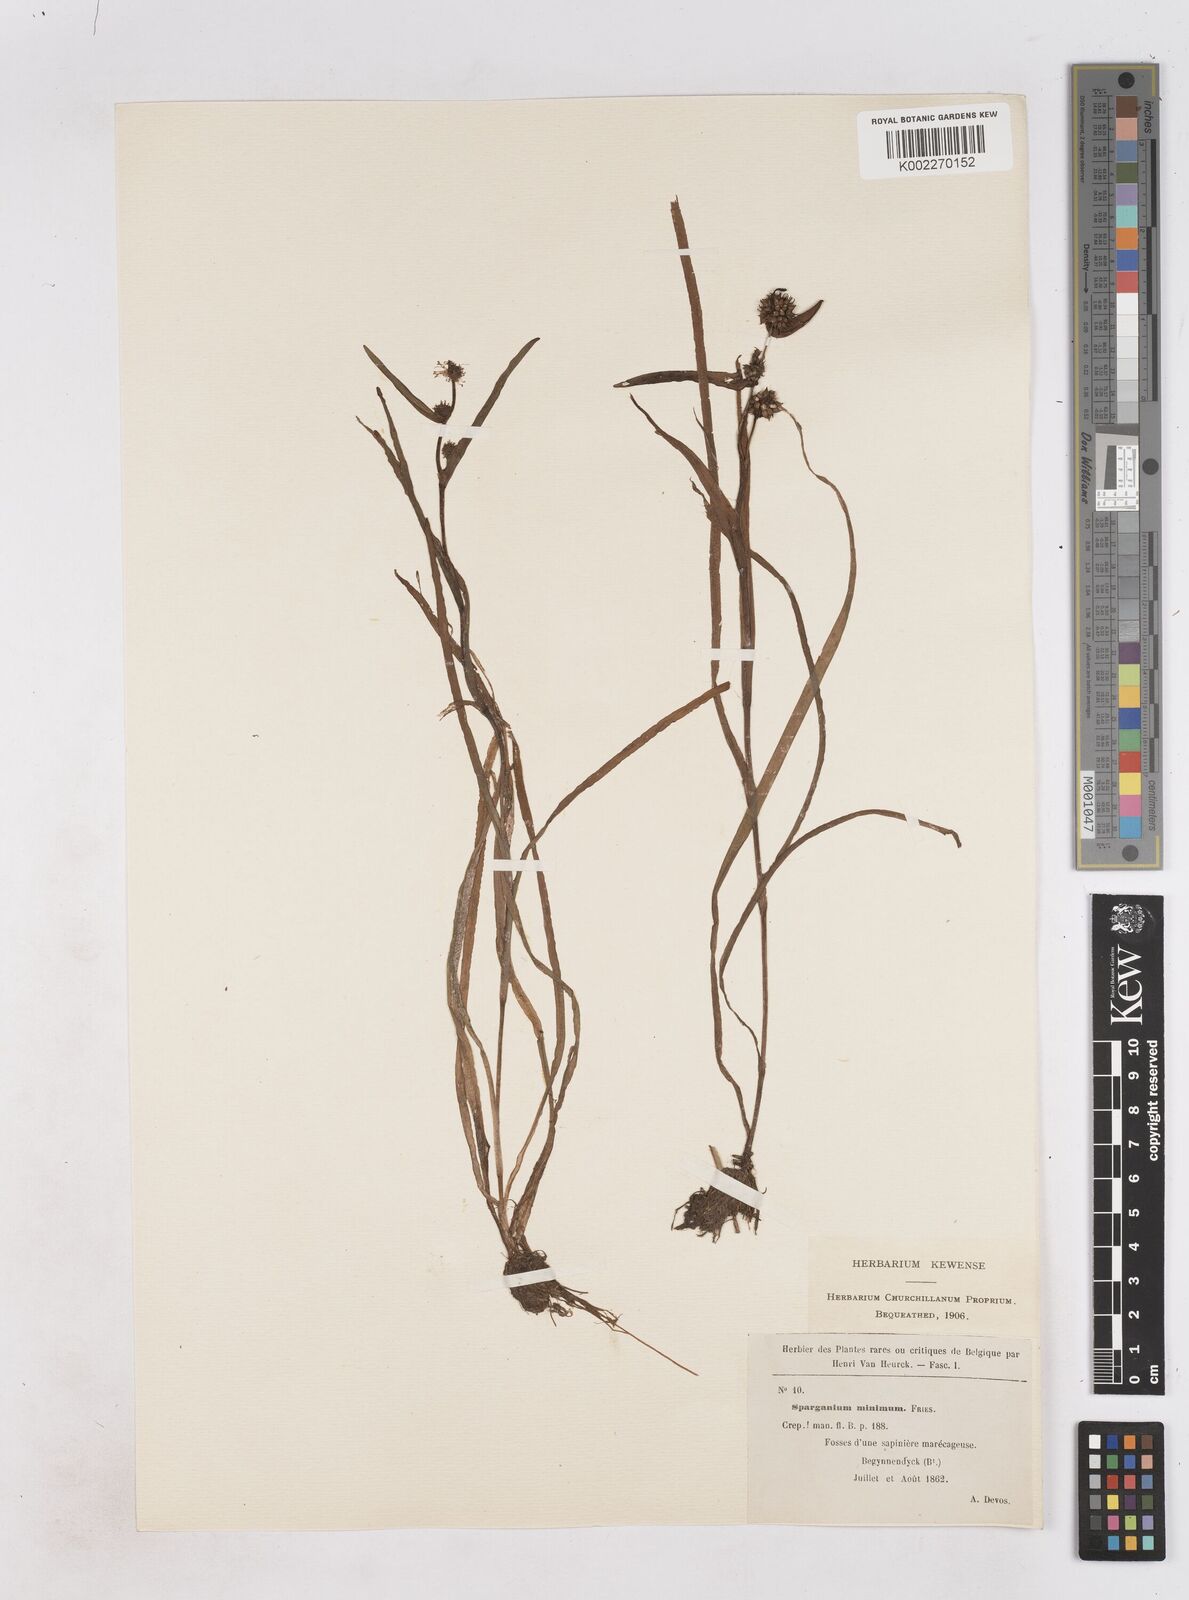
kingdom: Plantae
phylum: Tracheophyta
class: Liliopsida
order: Poales
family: Typhaceae
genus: Sparganium
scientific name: Sparganium natans
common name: Least bur-reed
